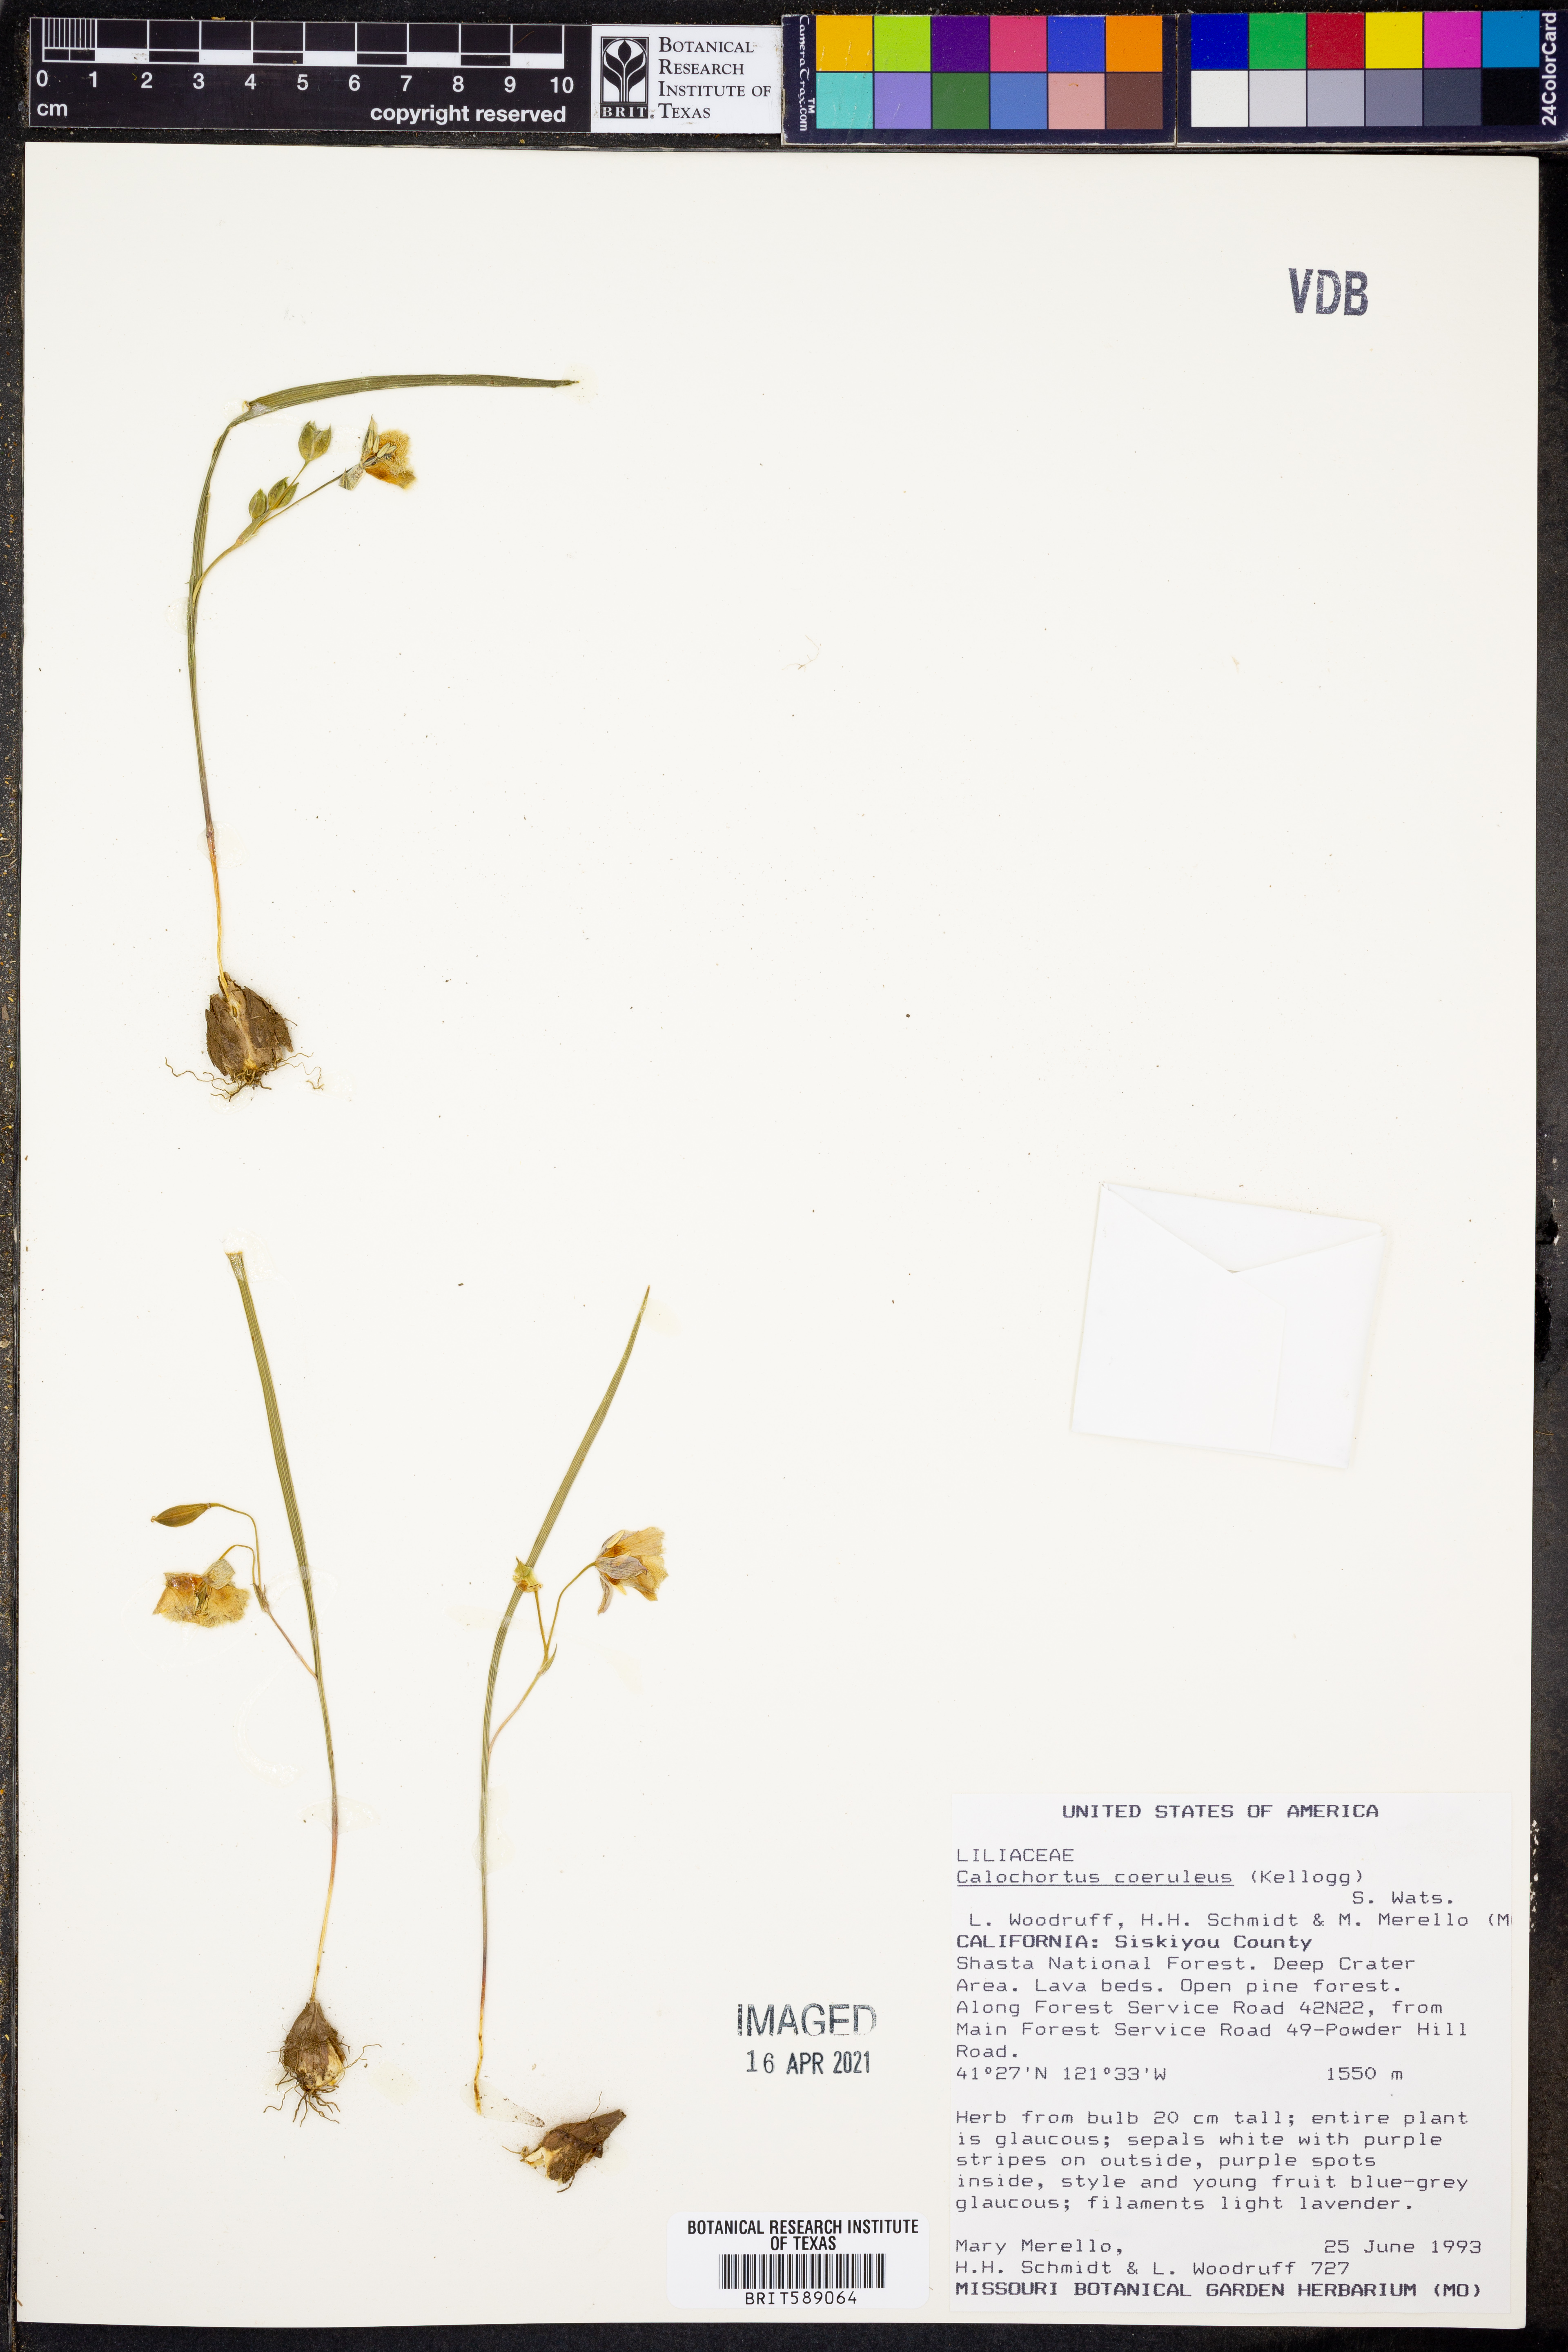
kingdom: Plantae
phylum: Tracheophyta
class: Liliopsida
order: Liliales
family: Liliaceae
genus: Calochortus
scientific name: Calochortus coeruleus
